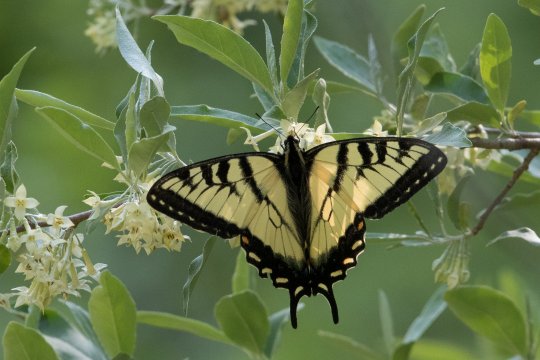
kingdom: Animalia
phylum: Arthropoda
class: Insecta
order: Lepidoptera
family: Papilionidae
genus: Pterourus
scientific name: Pterourus canadensis
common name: Canadian Tiger Swallowtail
